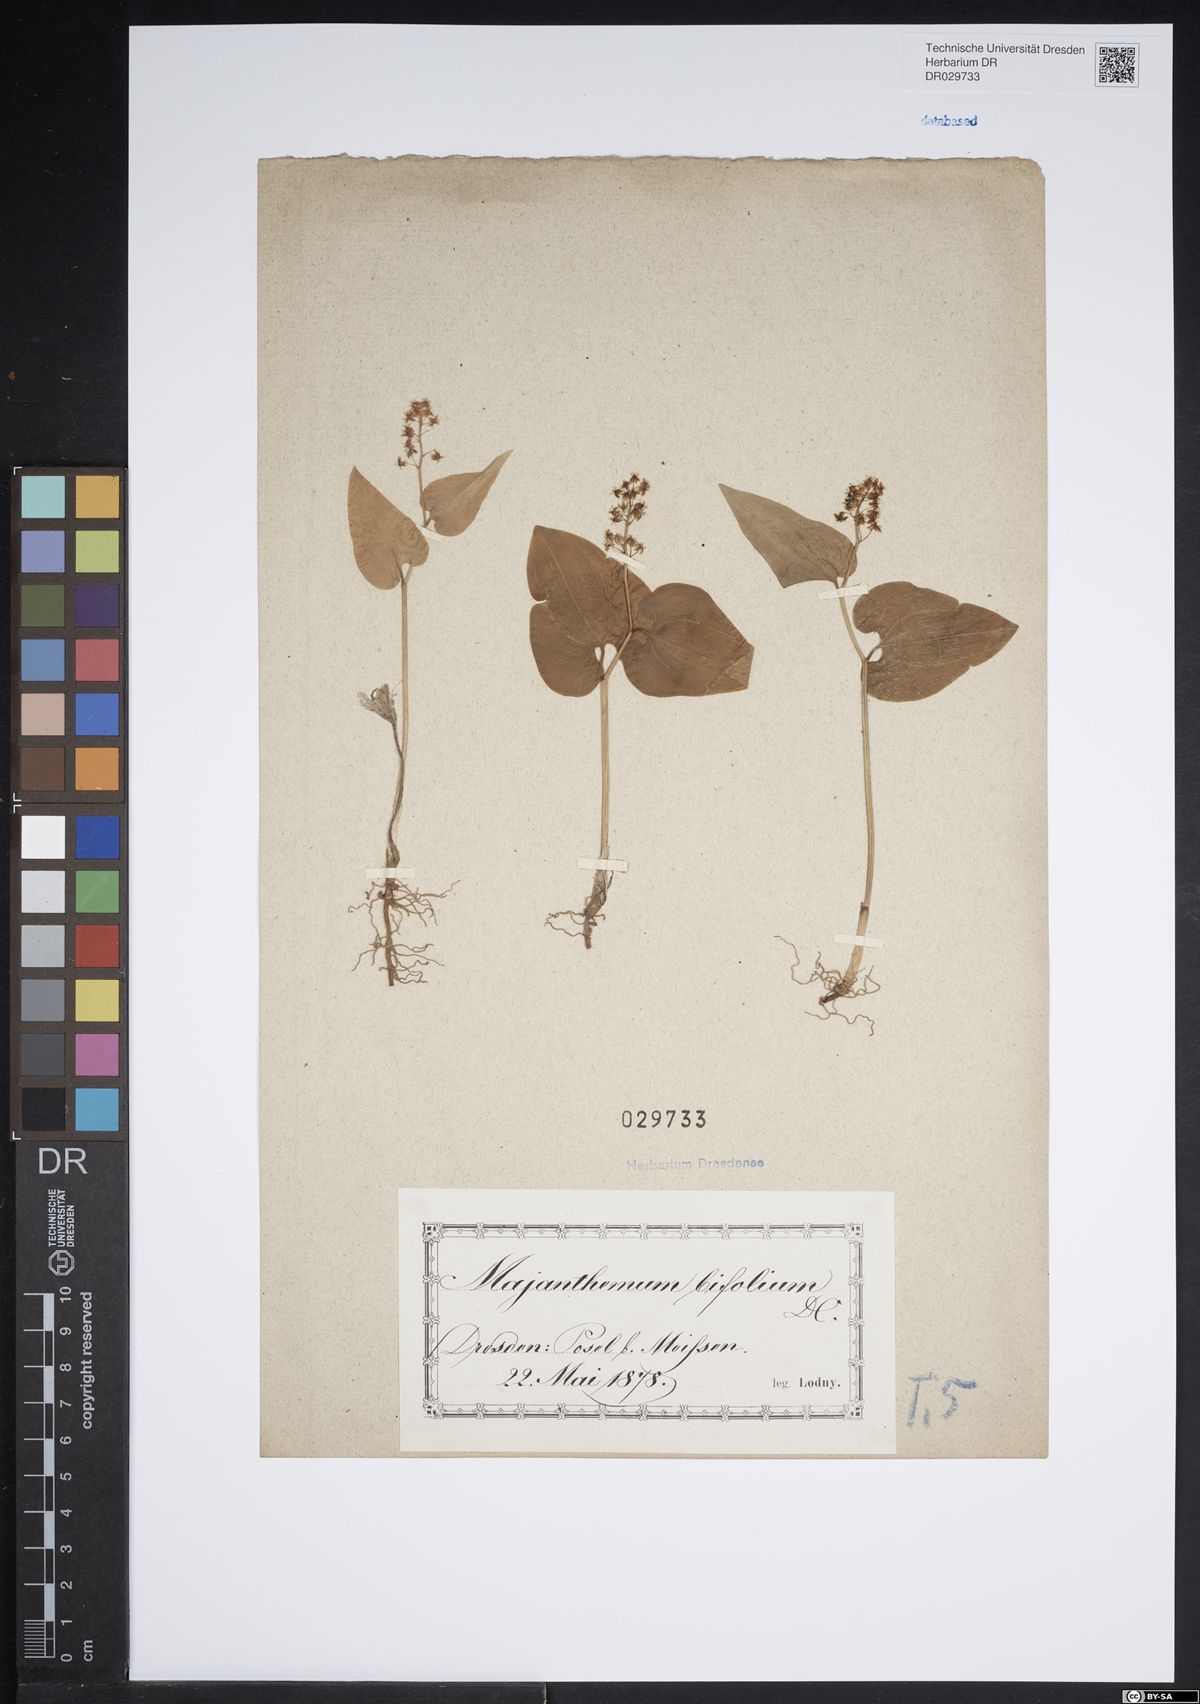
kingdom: Plantae
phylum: Tracheophyta
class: Liliopsida
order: Asparagales
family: Asparagaceae
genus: Maianthemum
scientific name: Maianthemum bifolium
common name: May lily
